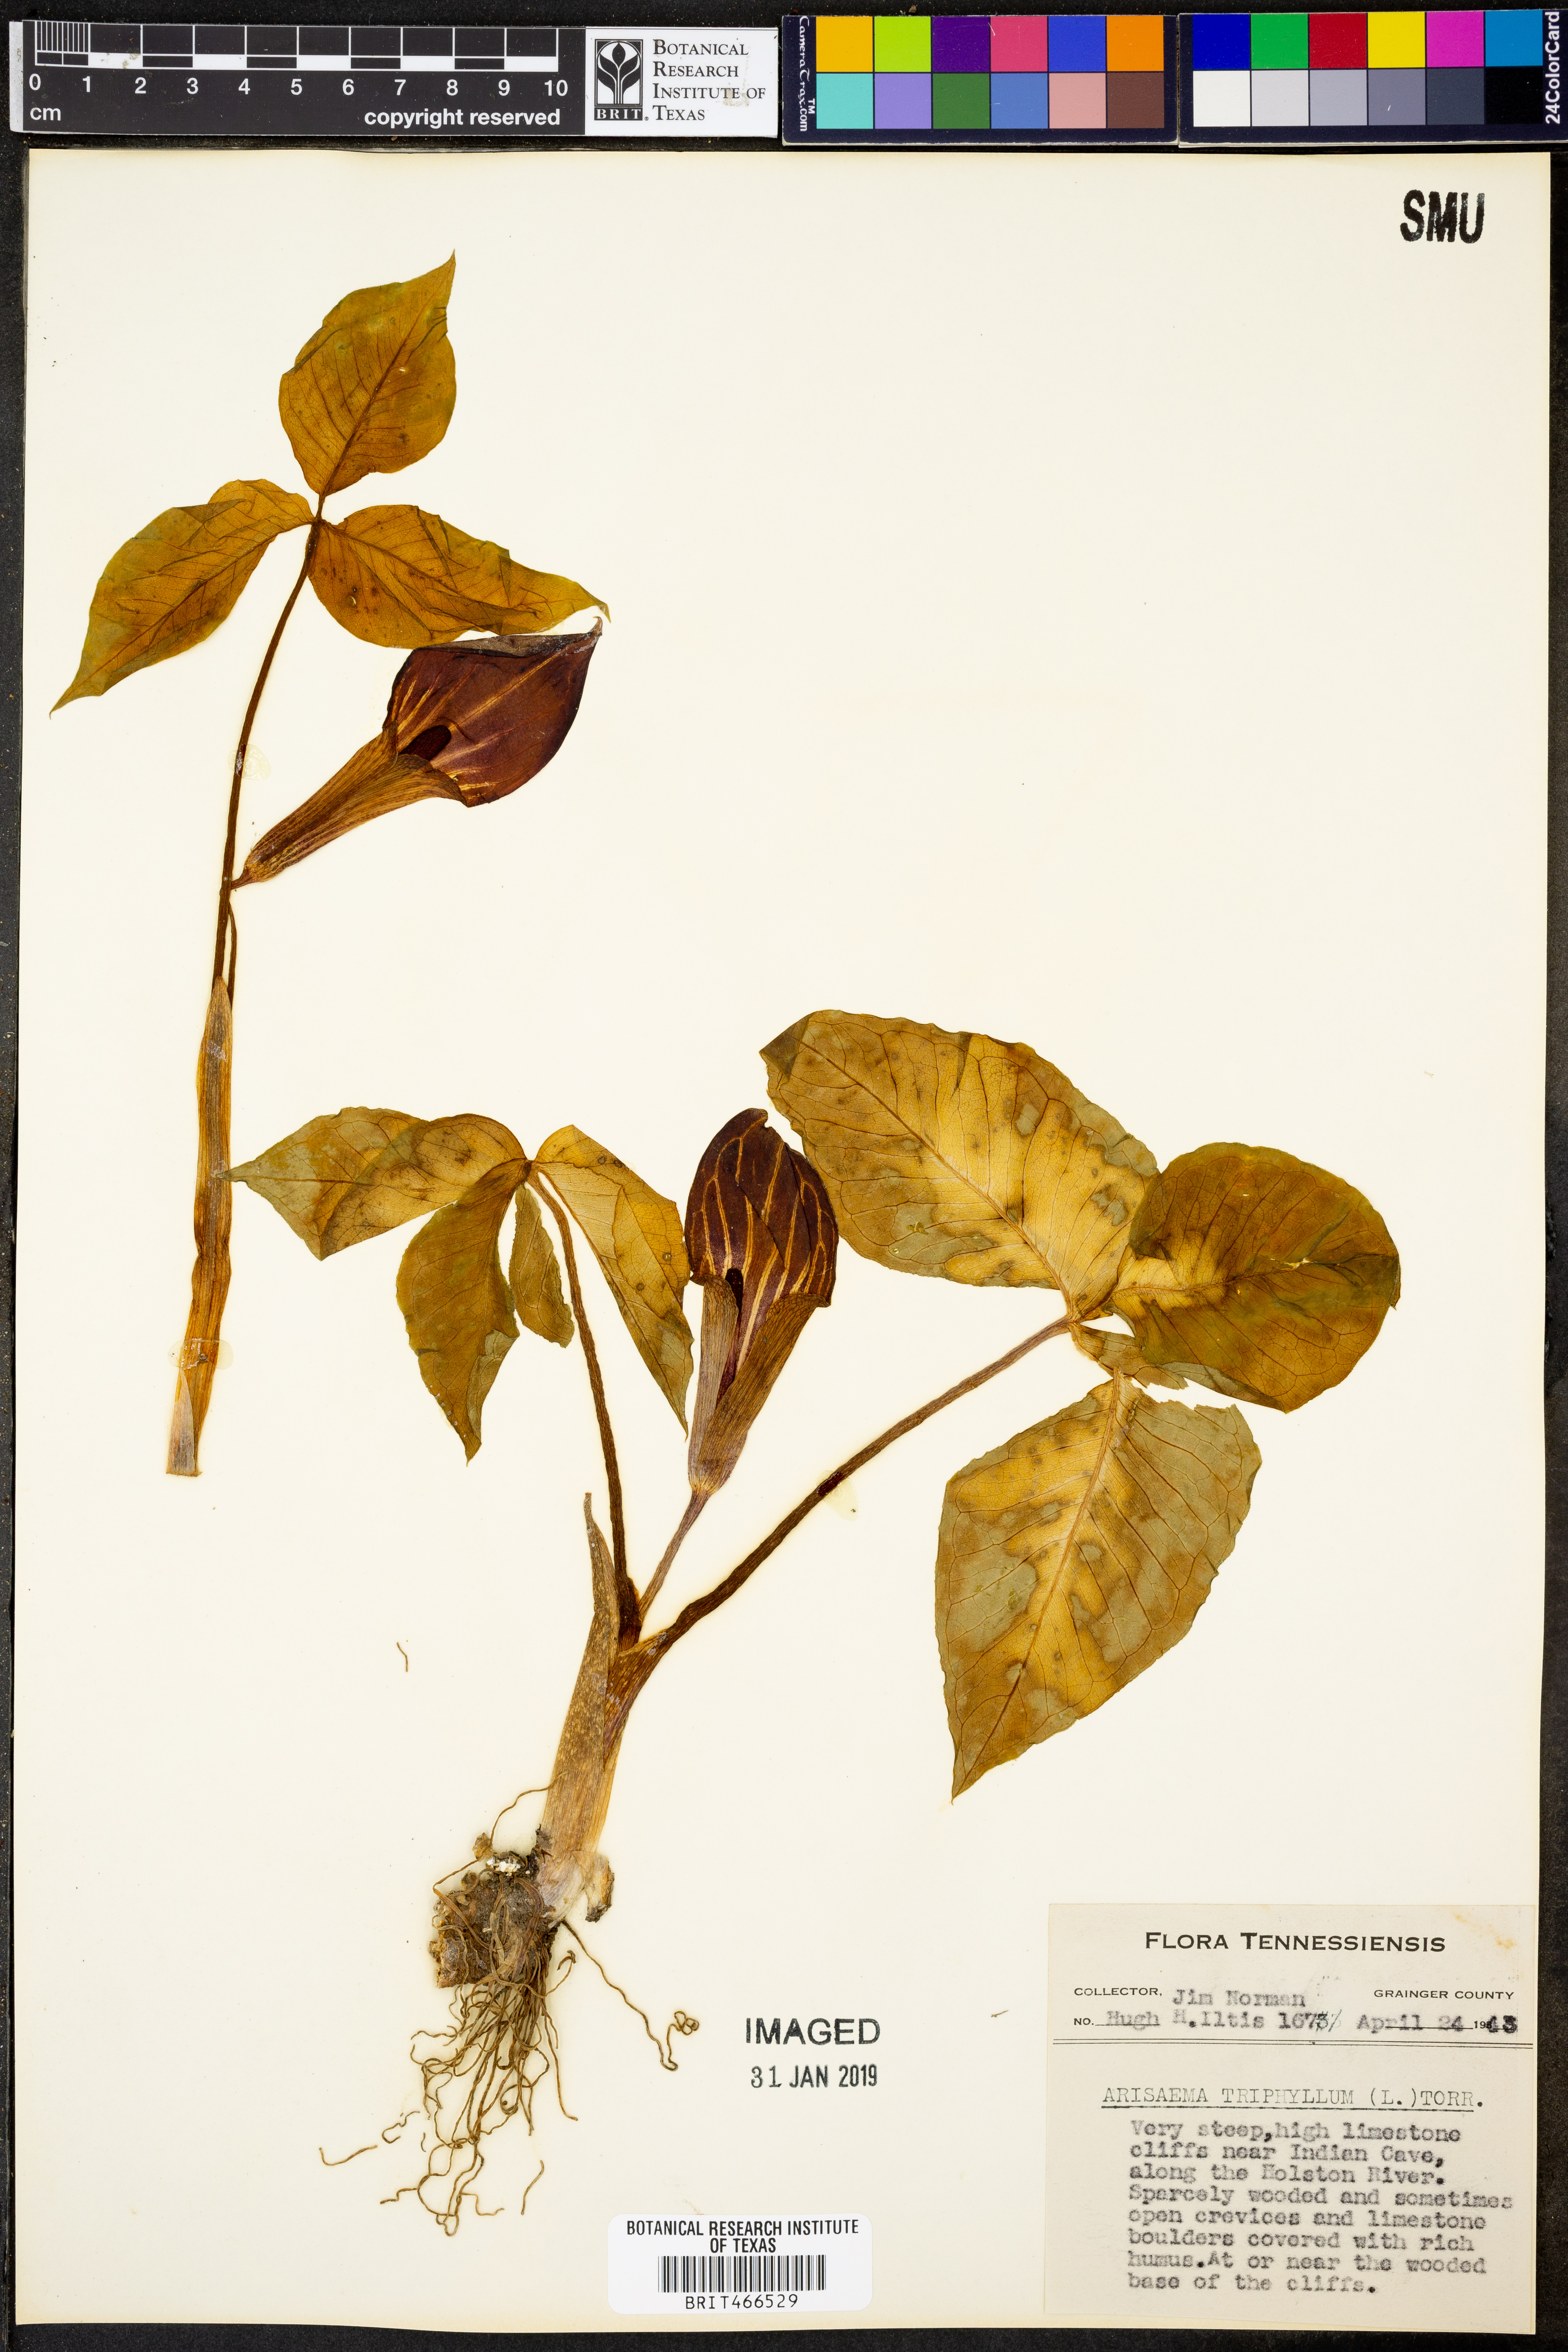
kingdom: Plantae
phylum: Tracheophyta
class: Liliopsida
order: Alismatales
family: Araceae
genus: Arisaema
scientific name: Arisaema triphyllum
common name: Jack-in-the-pulpit
